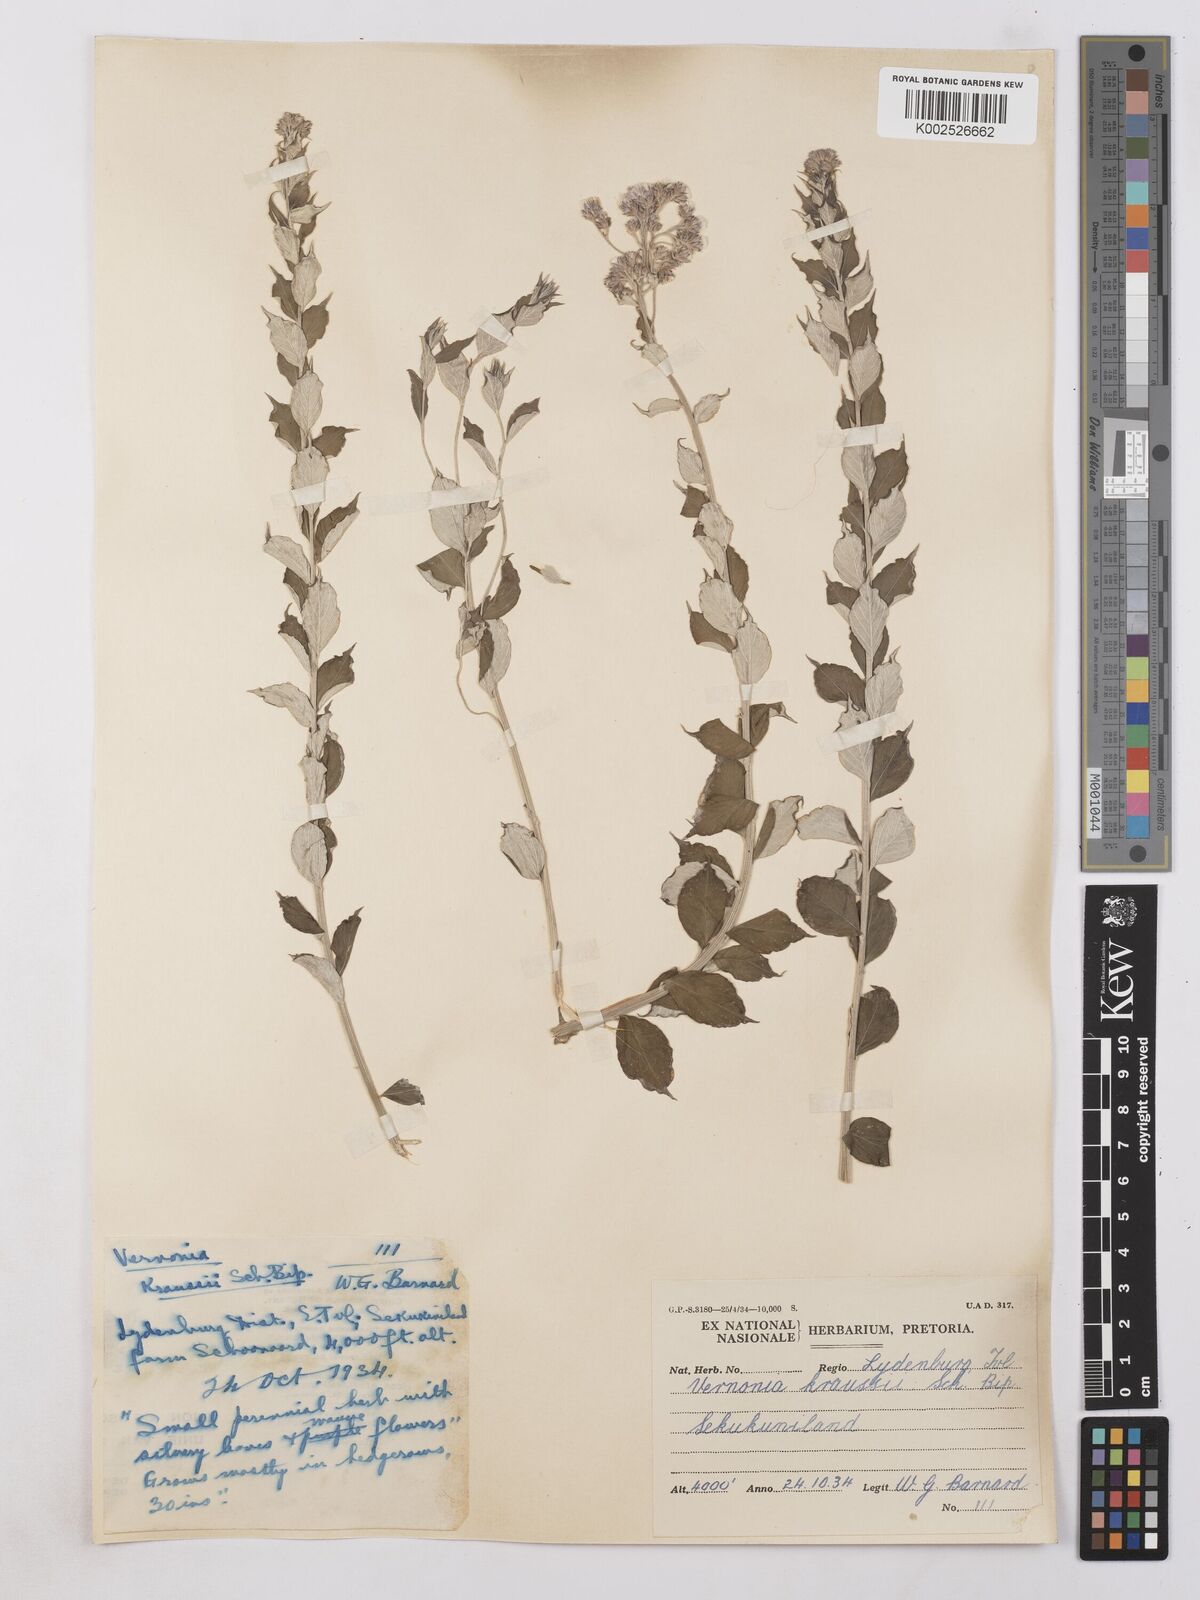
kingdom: Plantae
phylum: Tracheophyta
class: Magnoliopsida
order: Asterales
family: Asteraceae
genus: Hilliardiella
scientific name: Hilliardiella oligocephala
